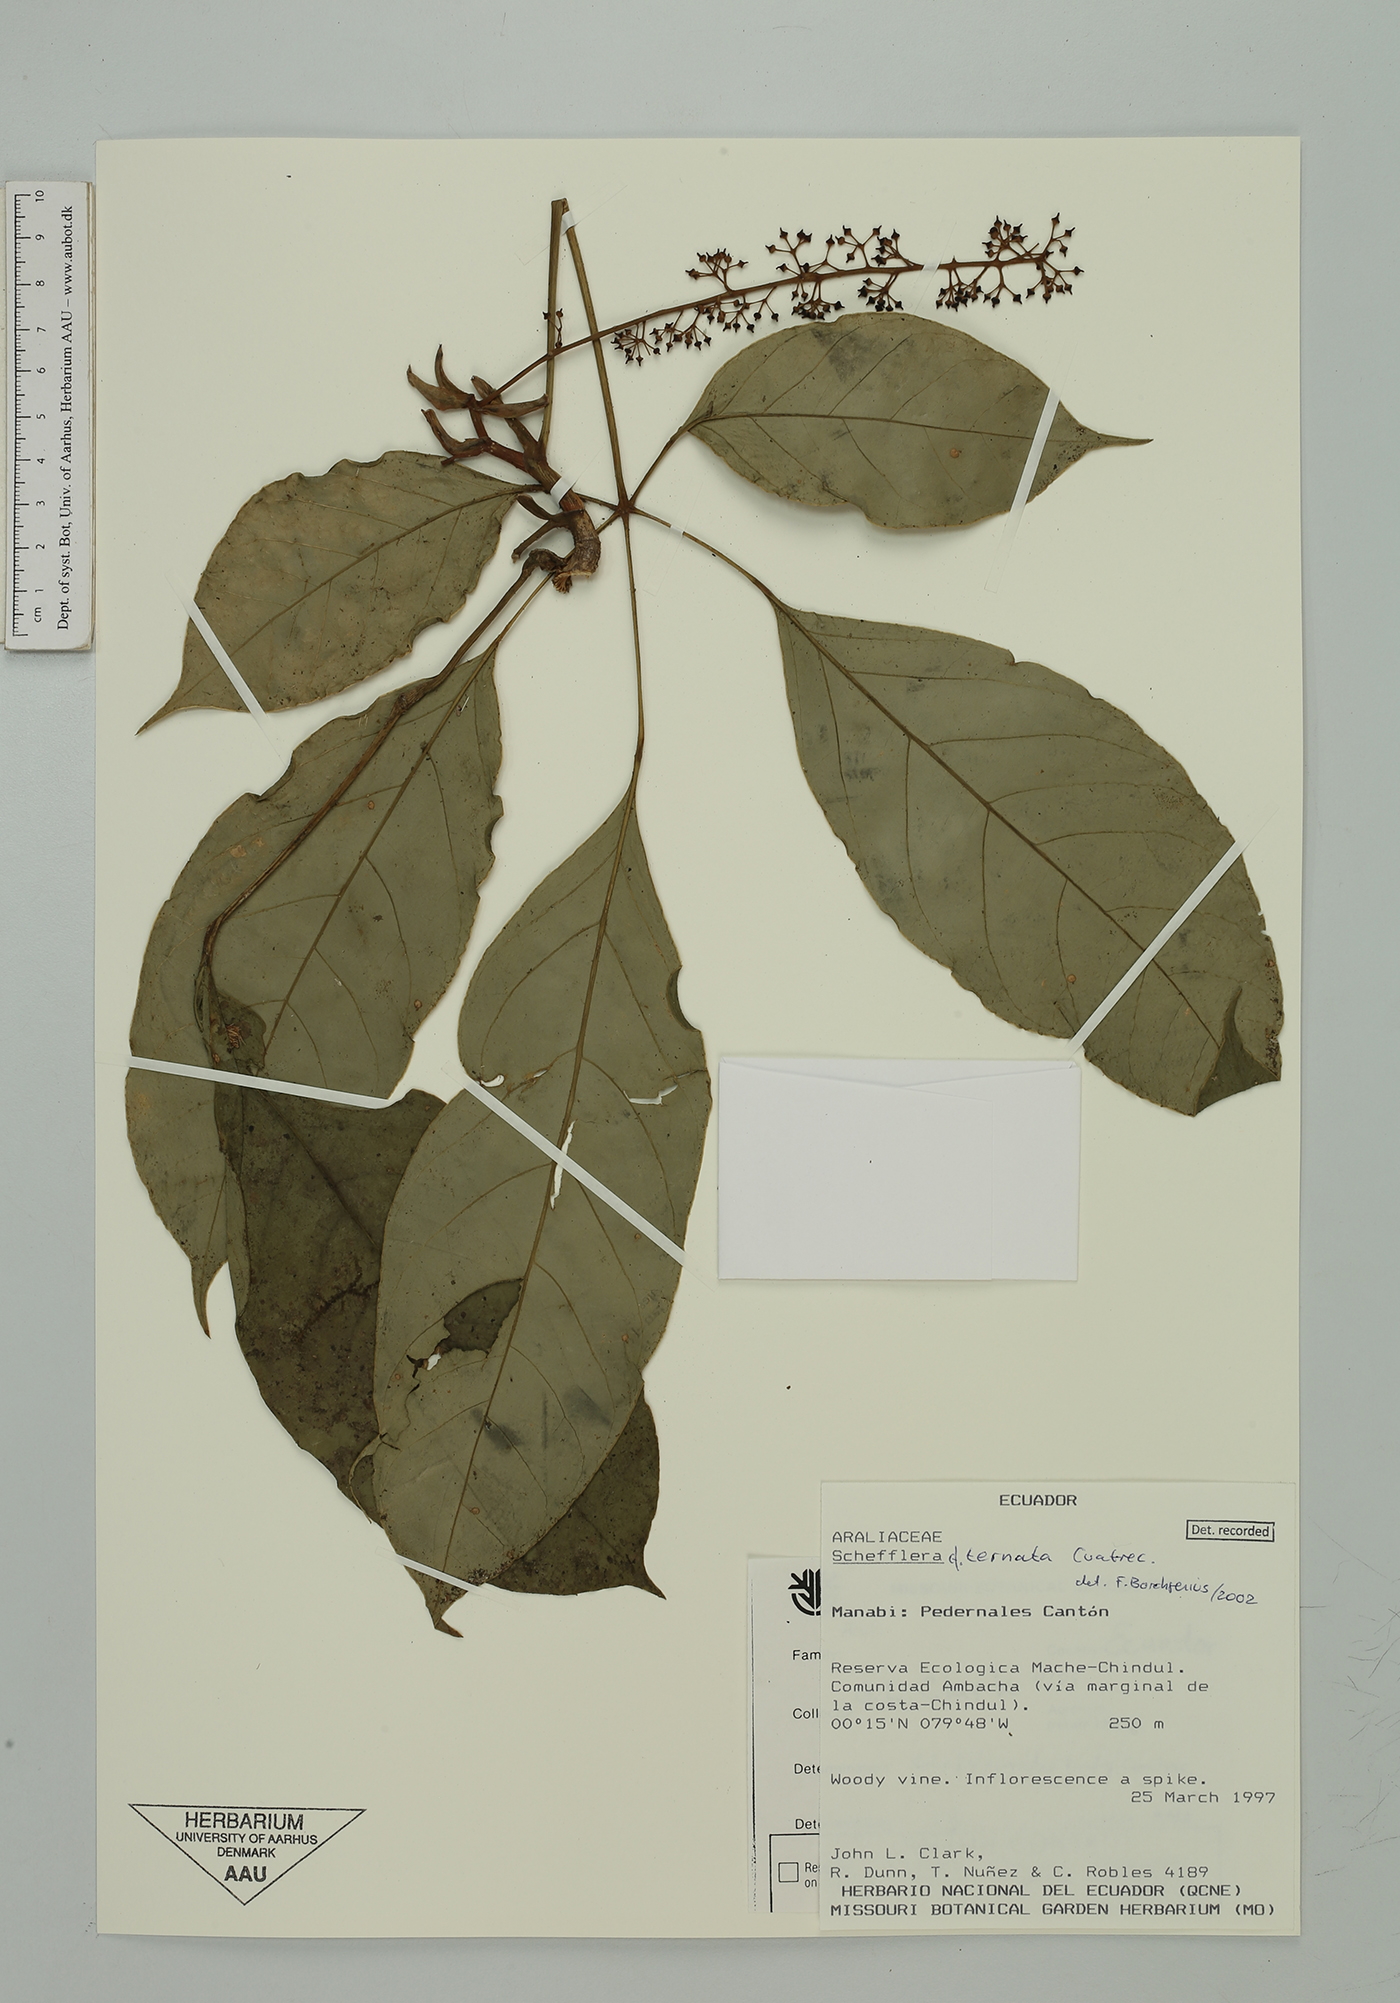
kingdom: Plantae
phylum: Tracheophyta
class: Magnoliopsida
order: Apiales
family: Araliaceae
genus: Sciodaphyllum
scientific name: Sciodaphyllum ternatum
